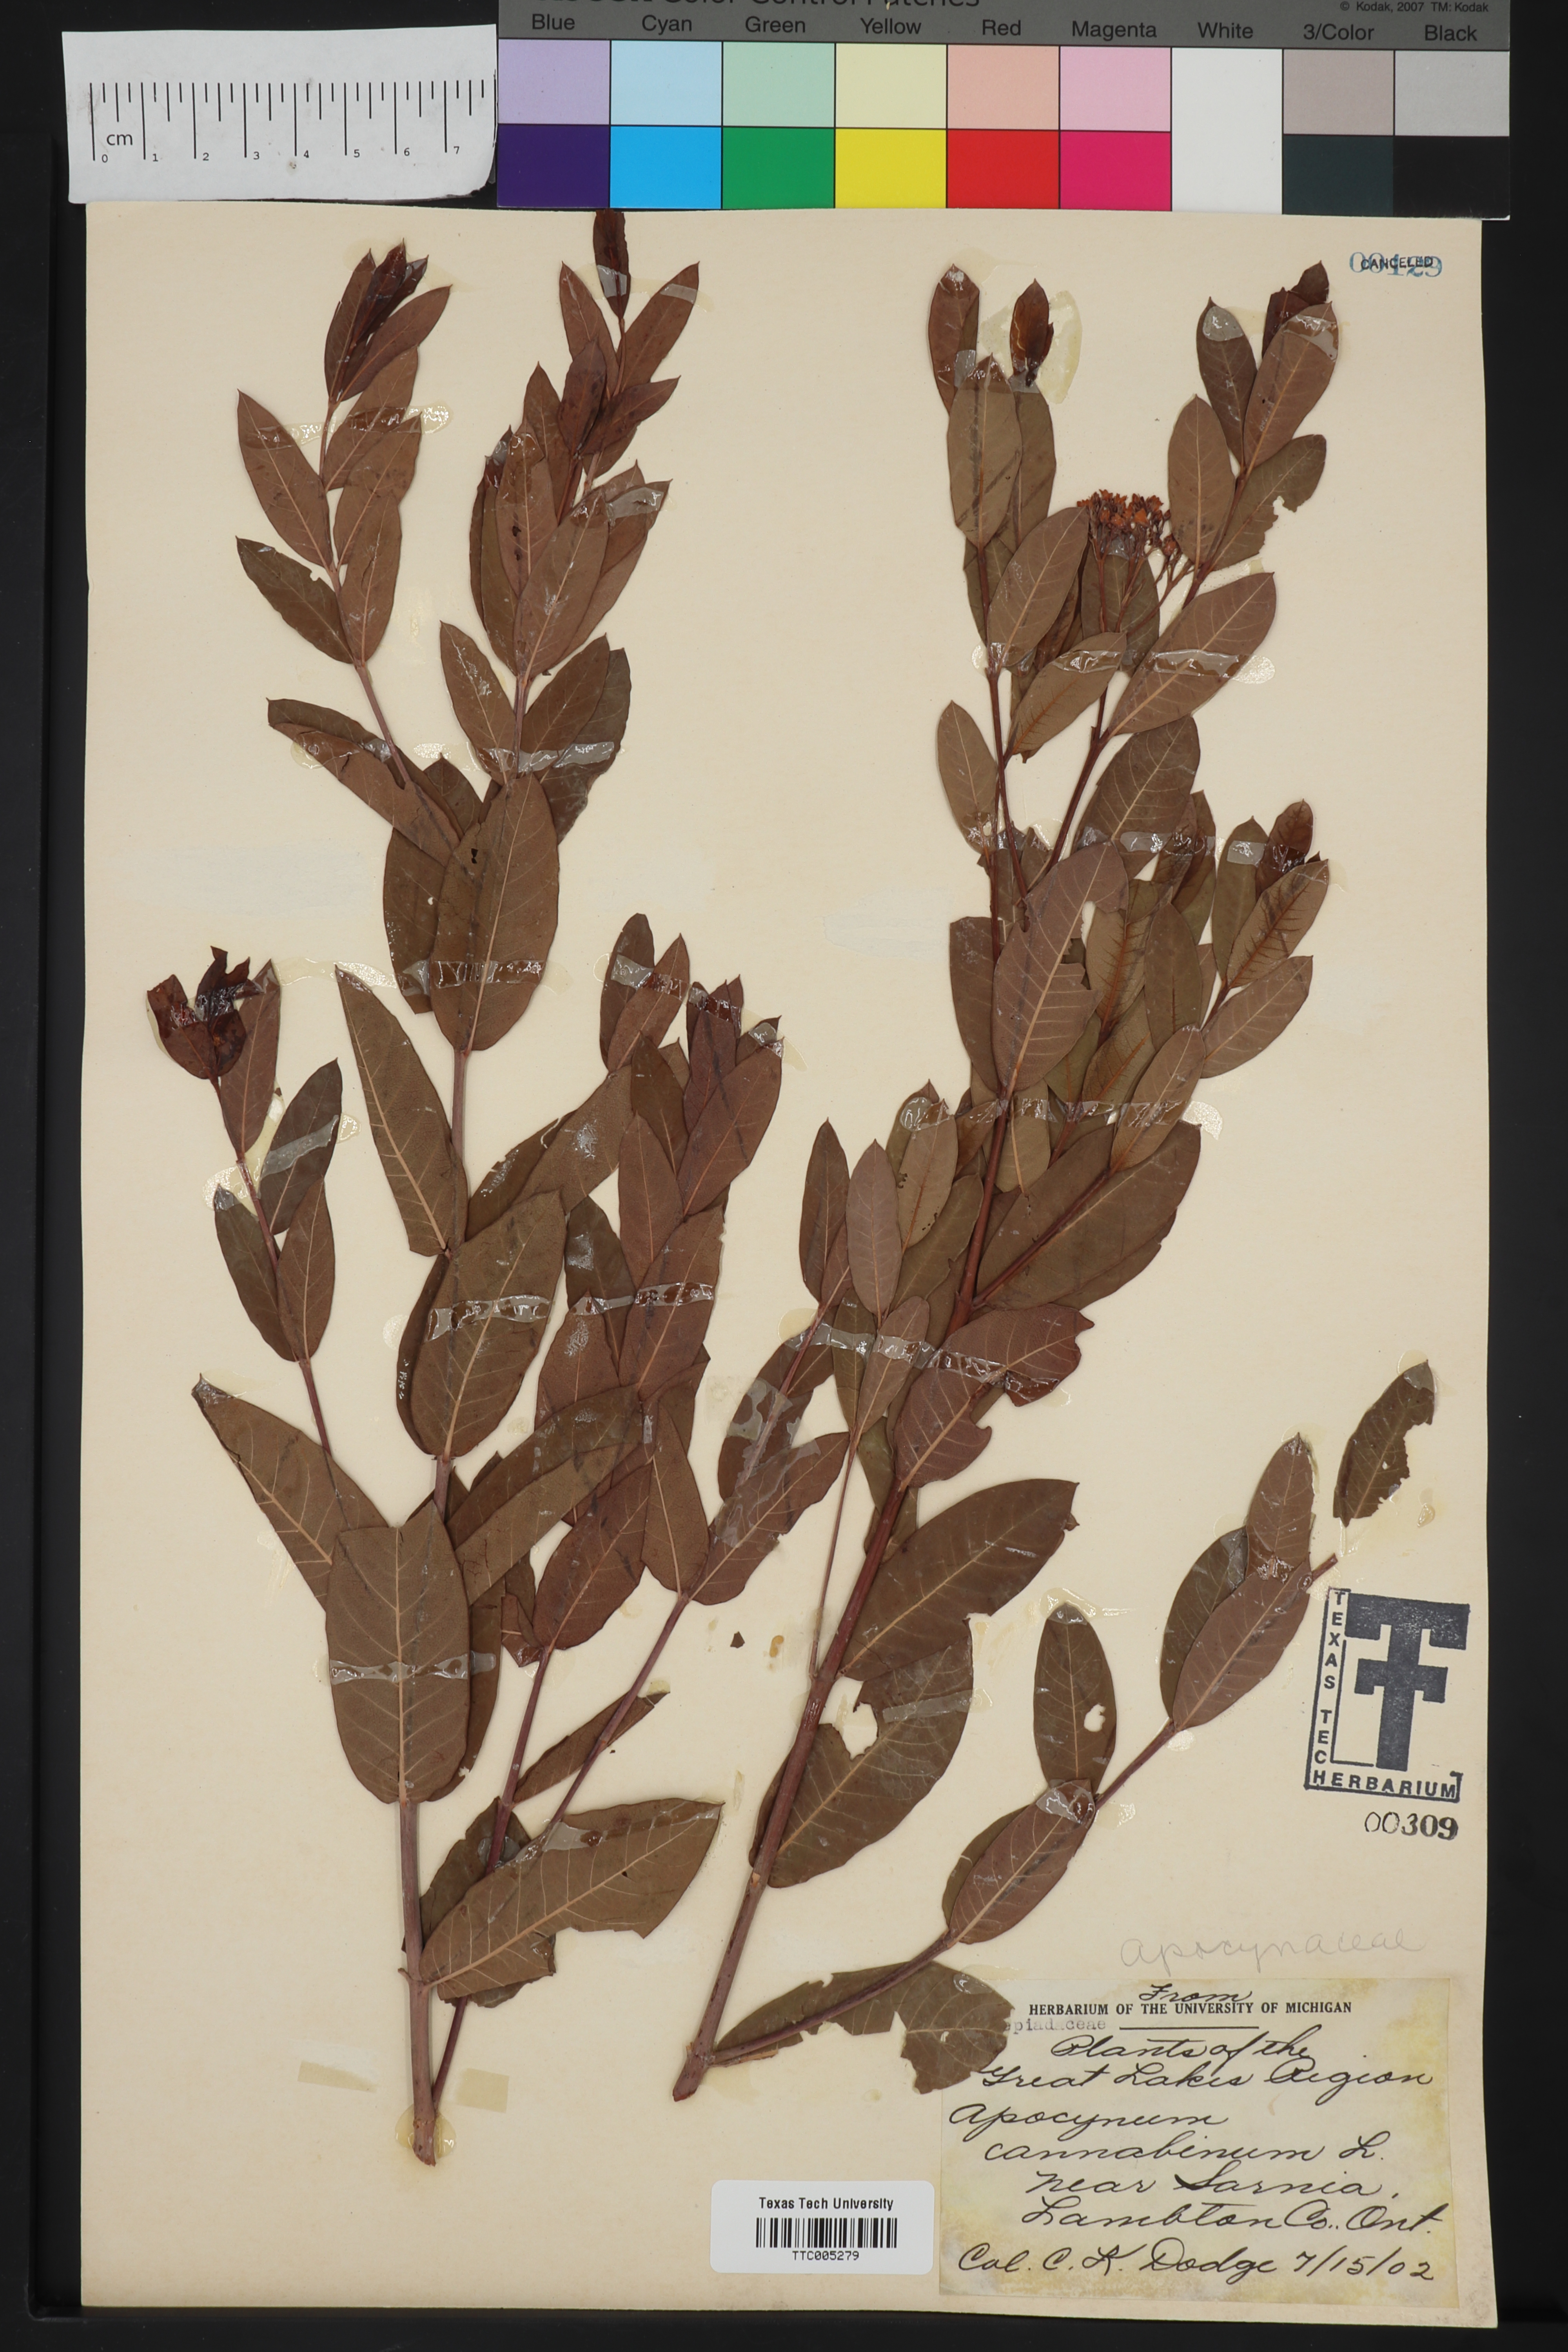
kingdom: Plantae
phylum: Tracheophyta
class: Magnoliopsida
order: Gentianales
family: Apocynaceae
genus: Apocynum
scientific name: Apocynum cannabinum
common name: Hemp dogbane
